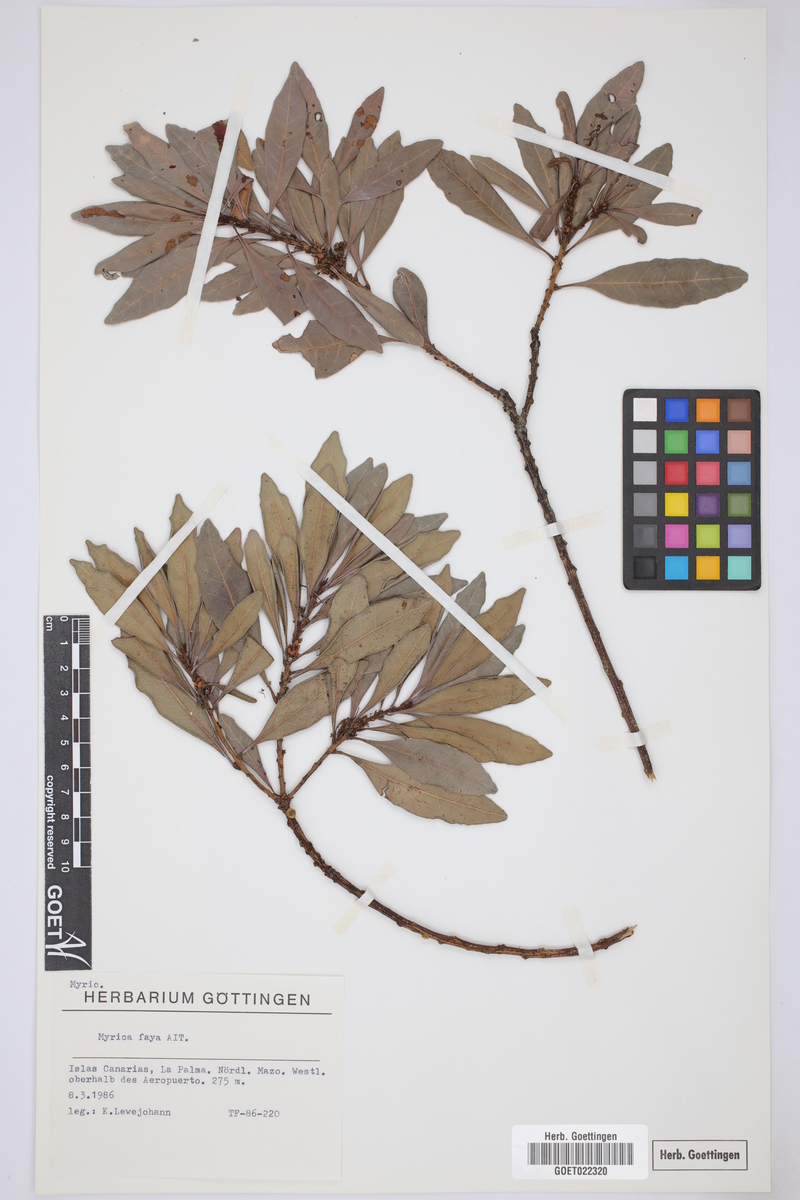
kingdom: Plantae
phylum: Tracheophyta
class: Magnoliopsida
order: Fagales
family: Myricaceae
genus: Morella
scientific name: Morella faya
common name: Firetree
